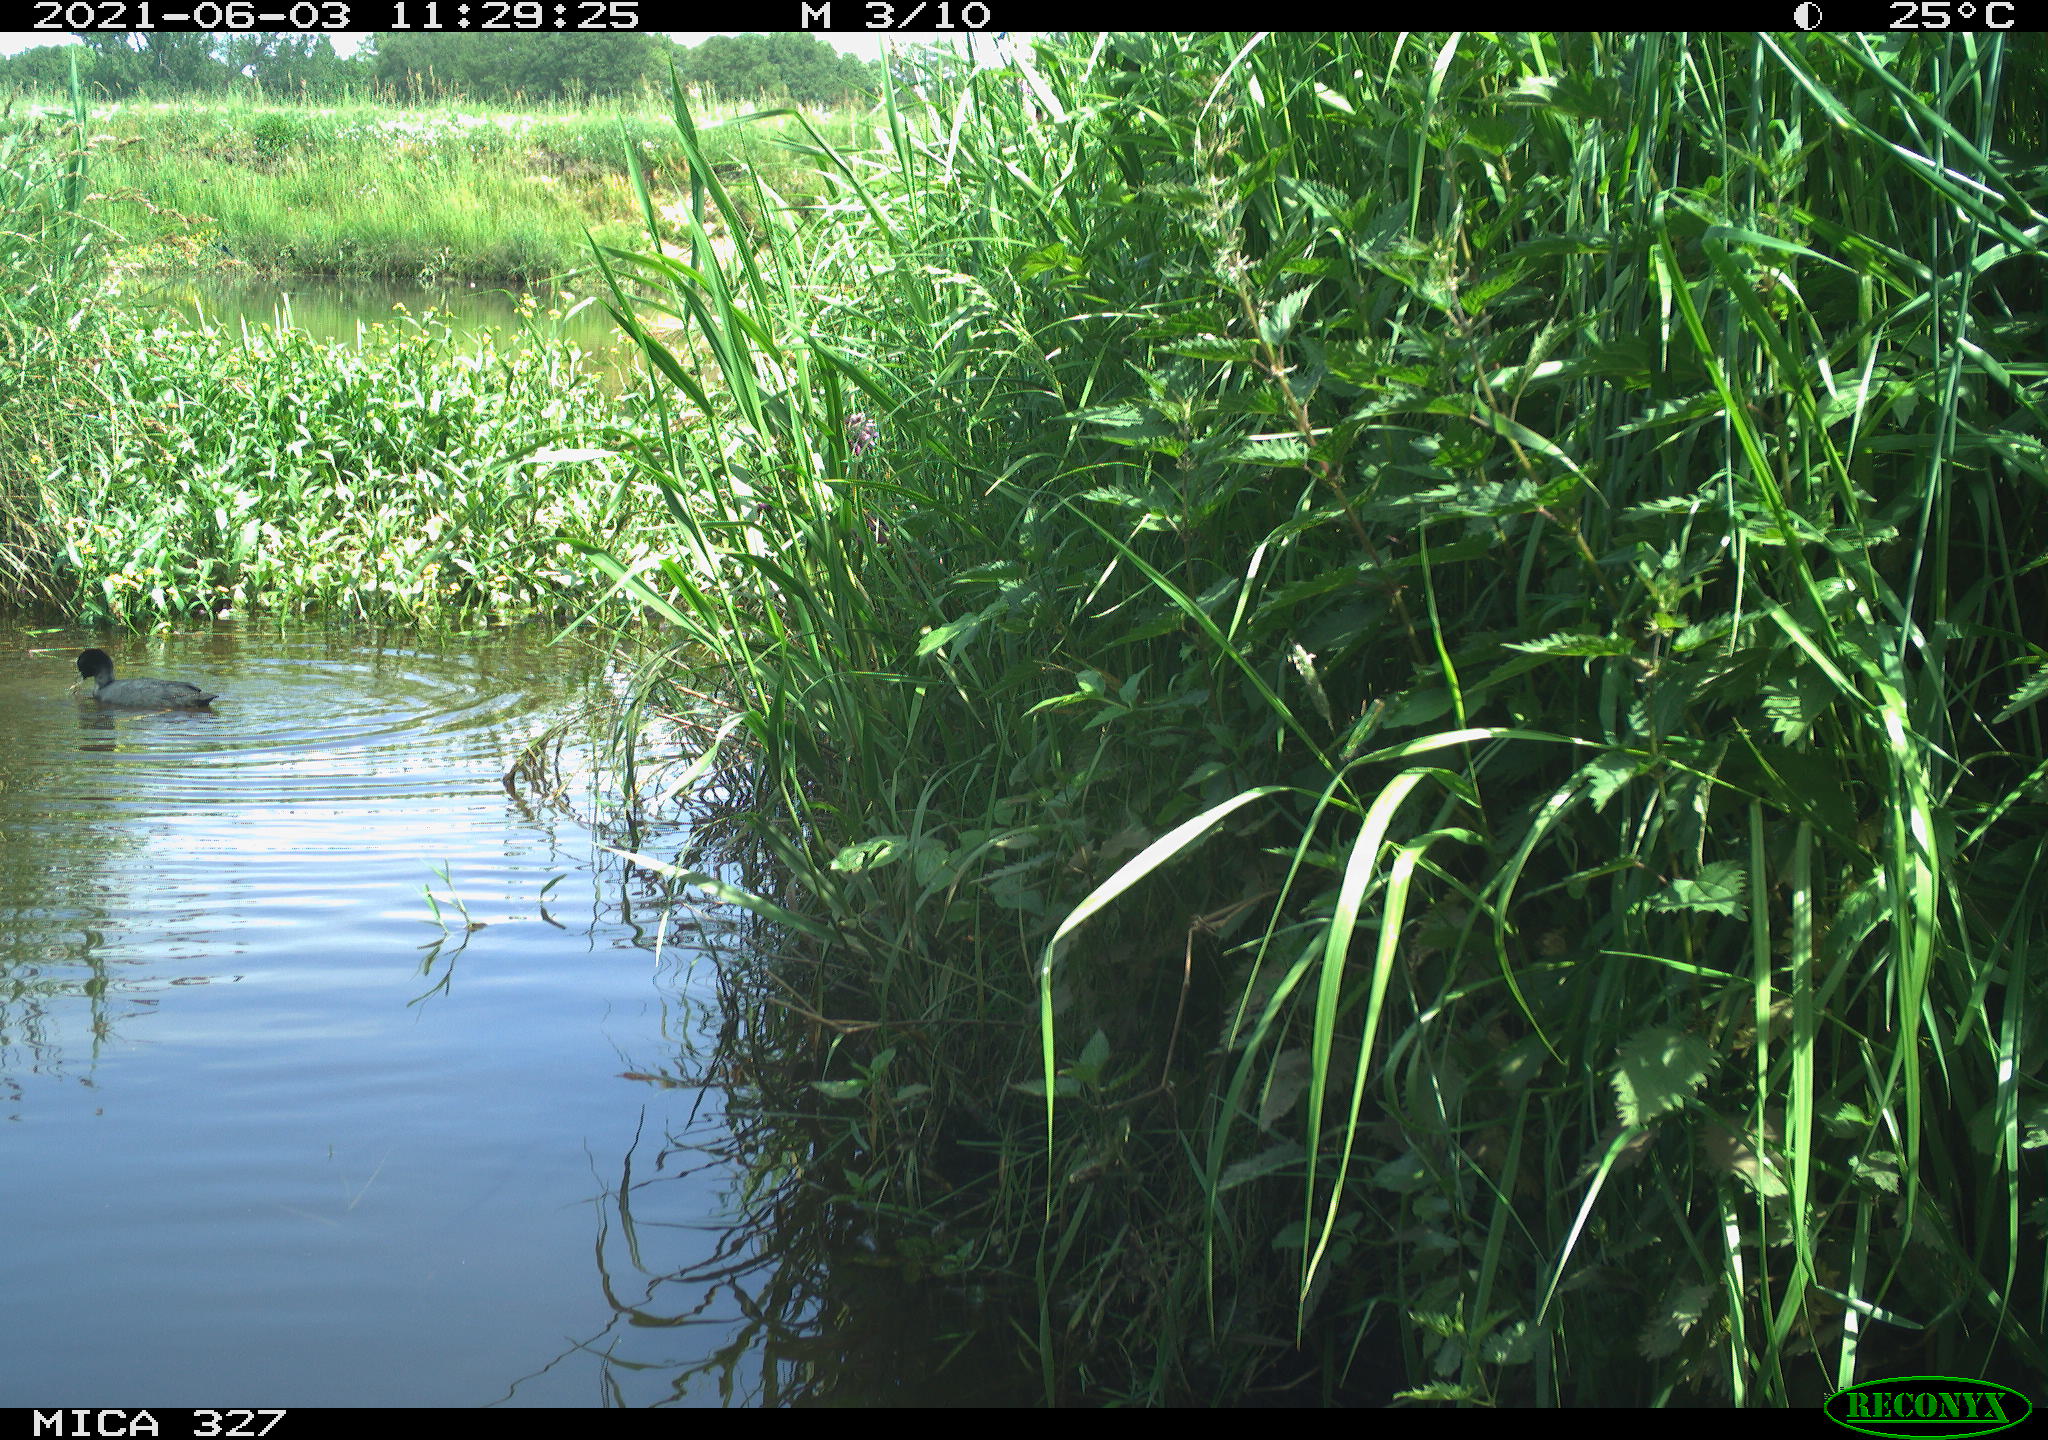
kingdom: Animalia
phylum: Chordata
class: Aves
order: Gruiformes
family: Rallidae
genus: Fulica
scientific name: Fulica atra
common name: Eurasian coot
